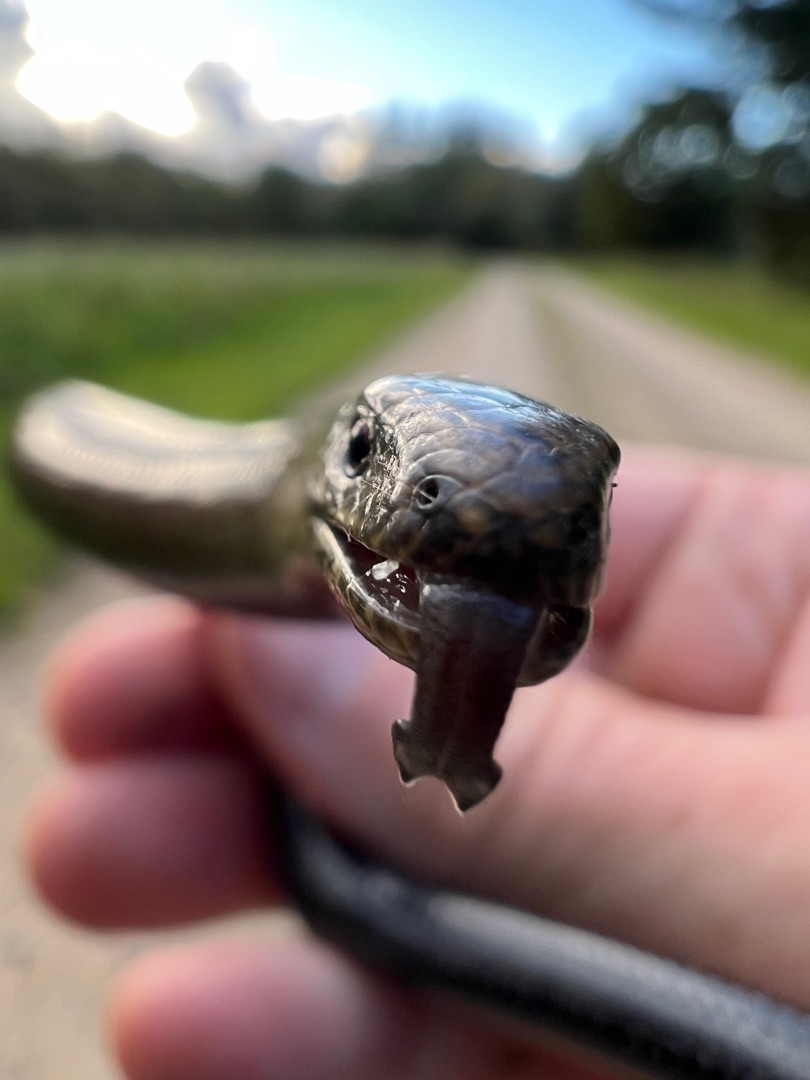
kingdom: Animalia
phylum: Chordata
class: Squamata
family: Anguidae
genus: Anguis
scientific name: Anguis fragilis
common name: Stålorm
